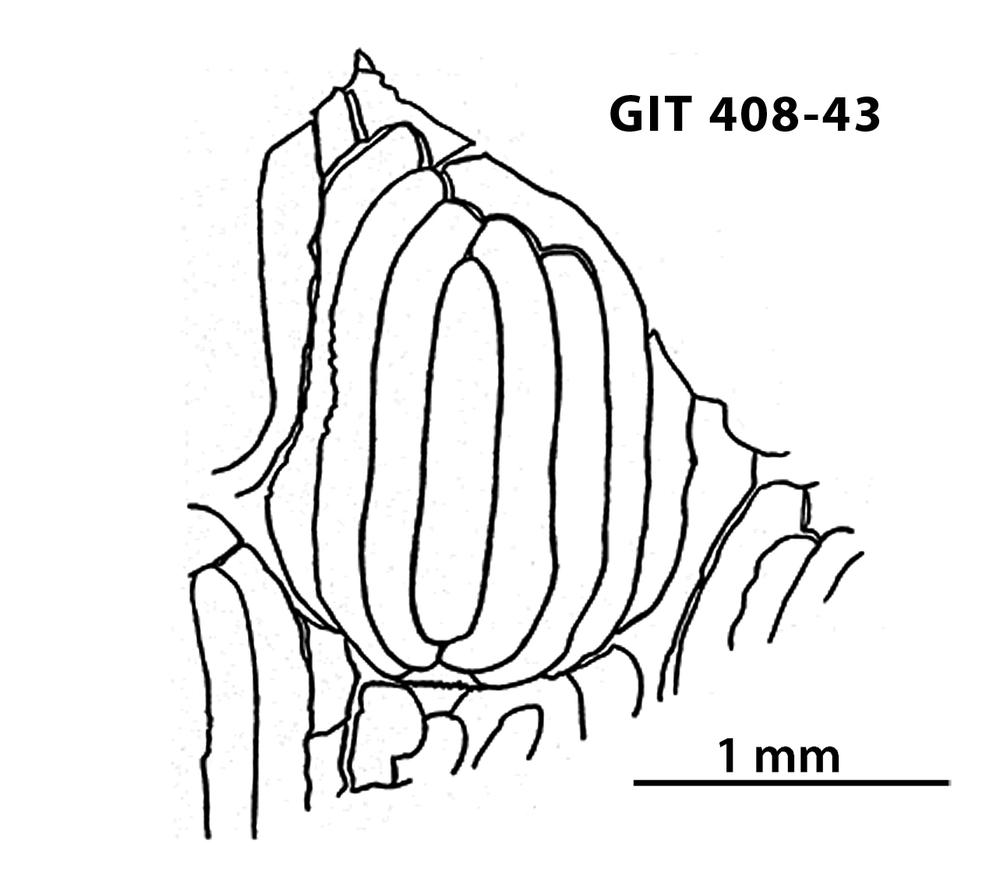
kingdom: Animalia
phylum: Chordata
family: Cyathaspididae
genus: Cyathaspis
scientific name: Cyathaspis
